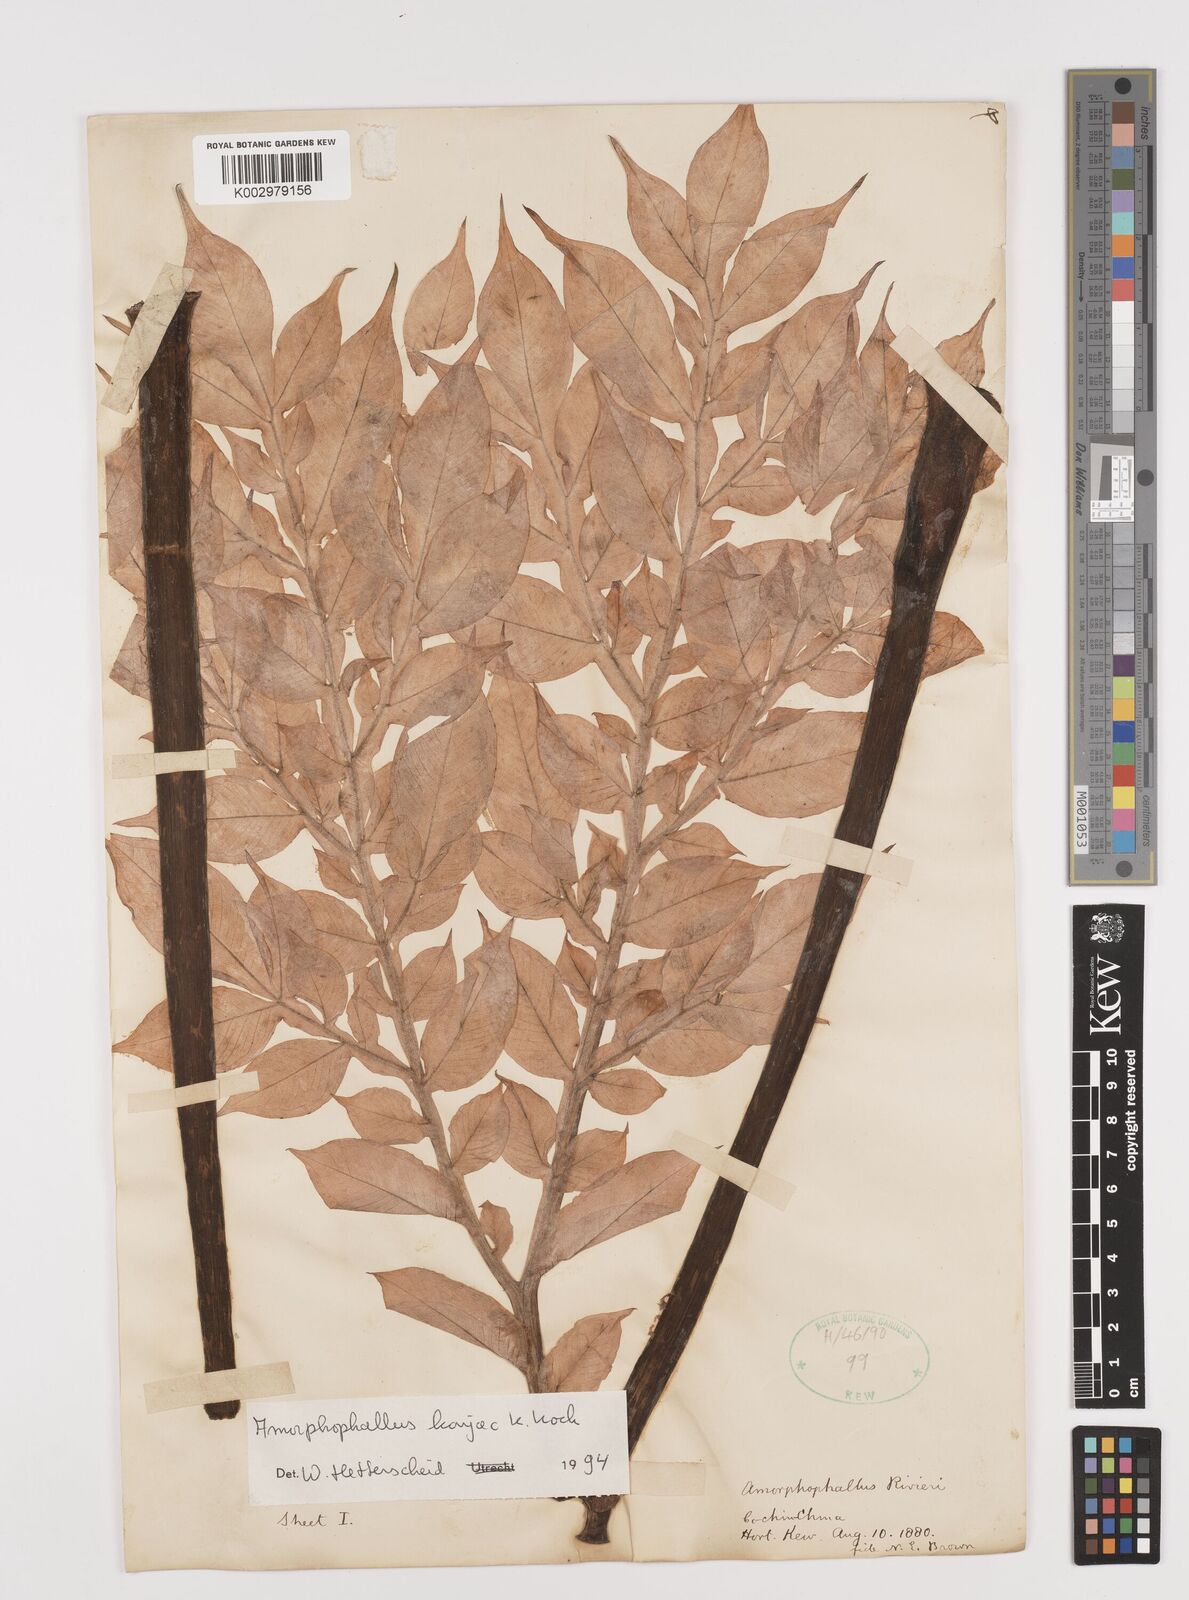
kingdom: Plantae
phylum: Tracheophyta
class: Liliopsida
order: Alismatales
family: Araceae
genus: Amorphophallus
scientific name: Amorphophallus konjac
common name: Umbrella arum
